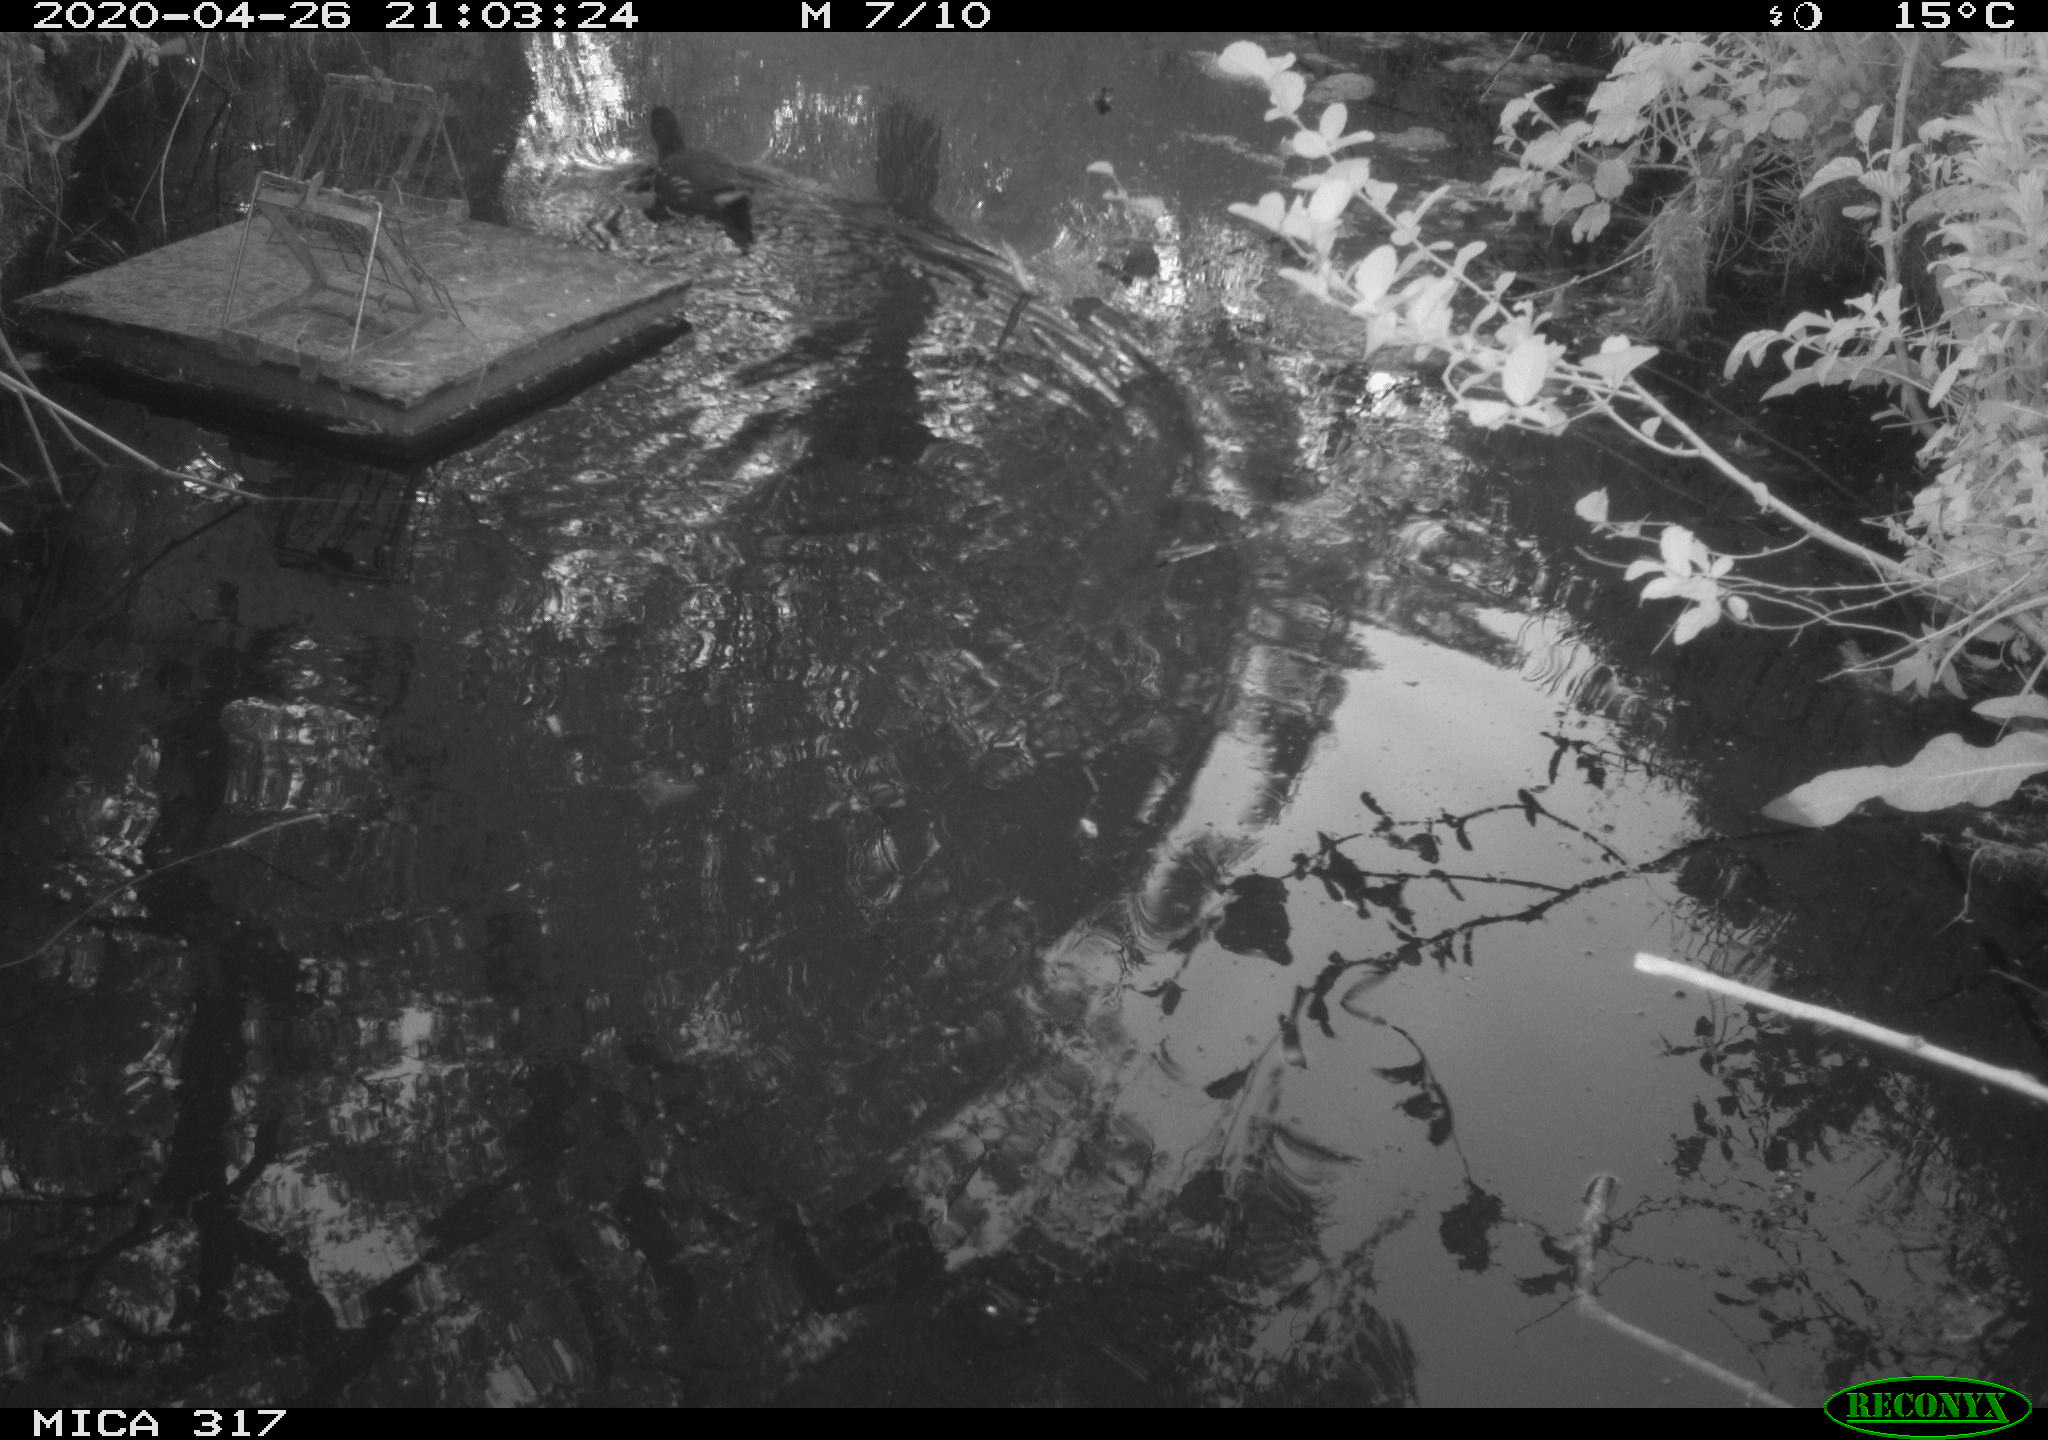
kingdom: Animalia
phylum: Chordata
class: Aves
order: Gruiformes
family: Rallidae
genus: Gallinula
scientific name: Gallinula chloropus
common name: Common moorhen
